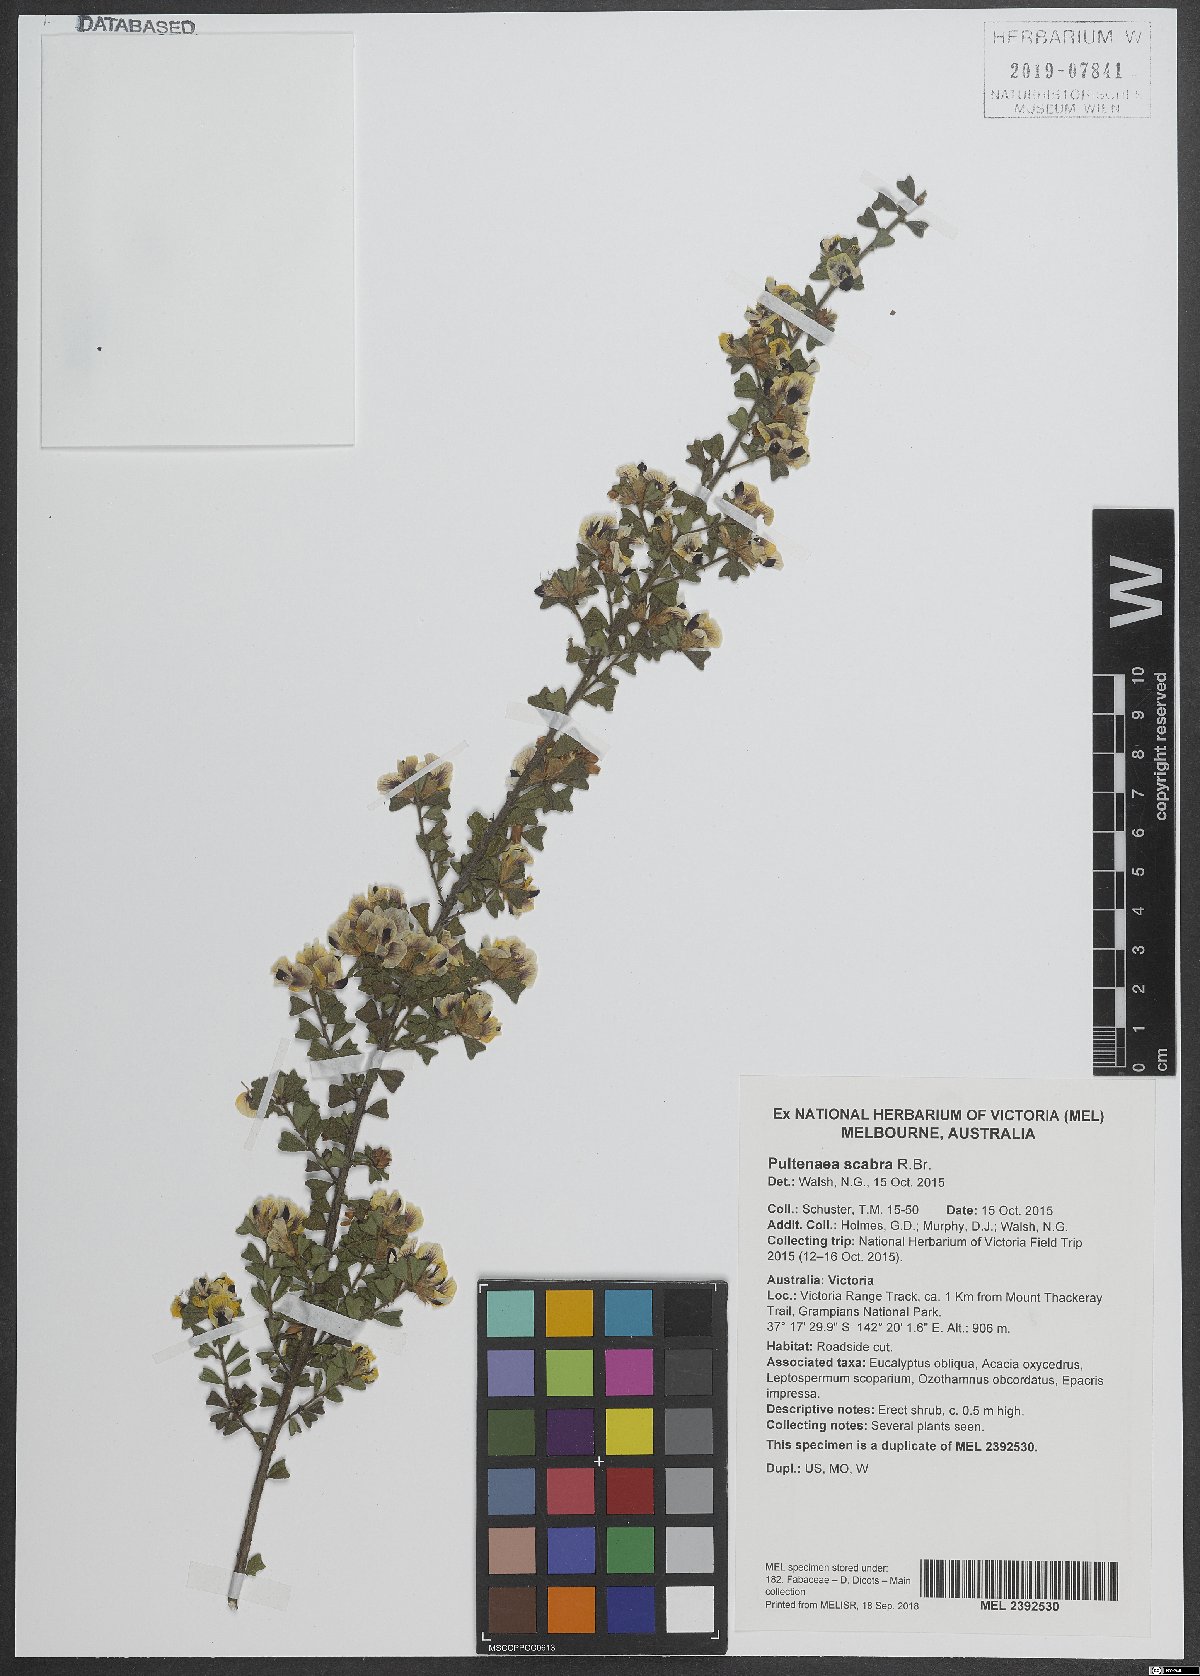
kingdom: Plantae
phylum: Tracheophyta
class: Magnoliopsida
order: Fabales
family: Fabaceae
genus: Pultenaea
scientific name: Pultenaea scabra
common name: Rough bush-pea
